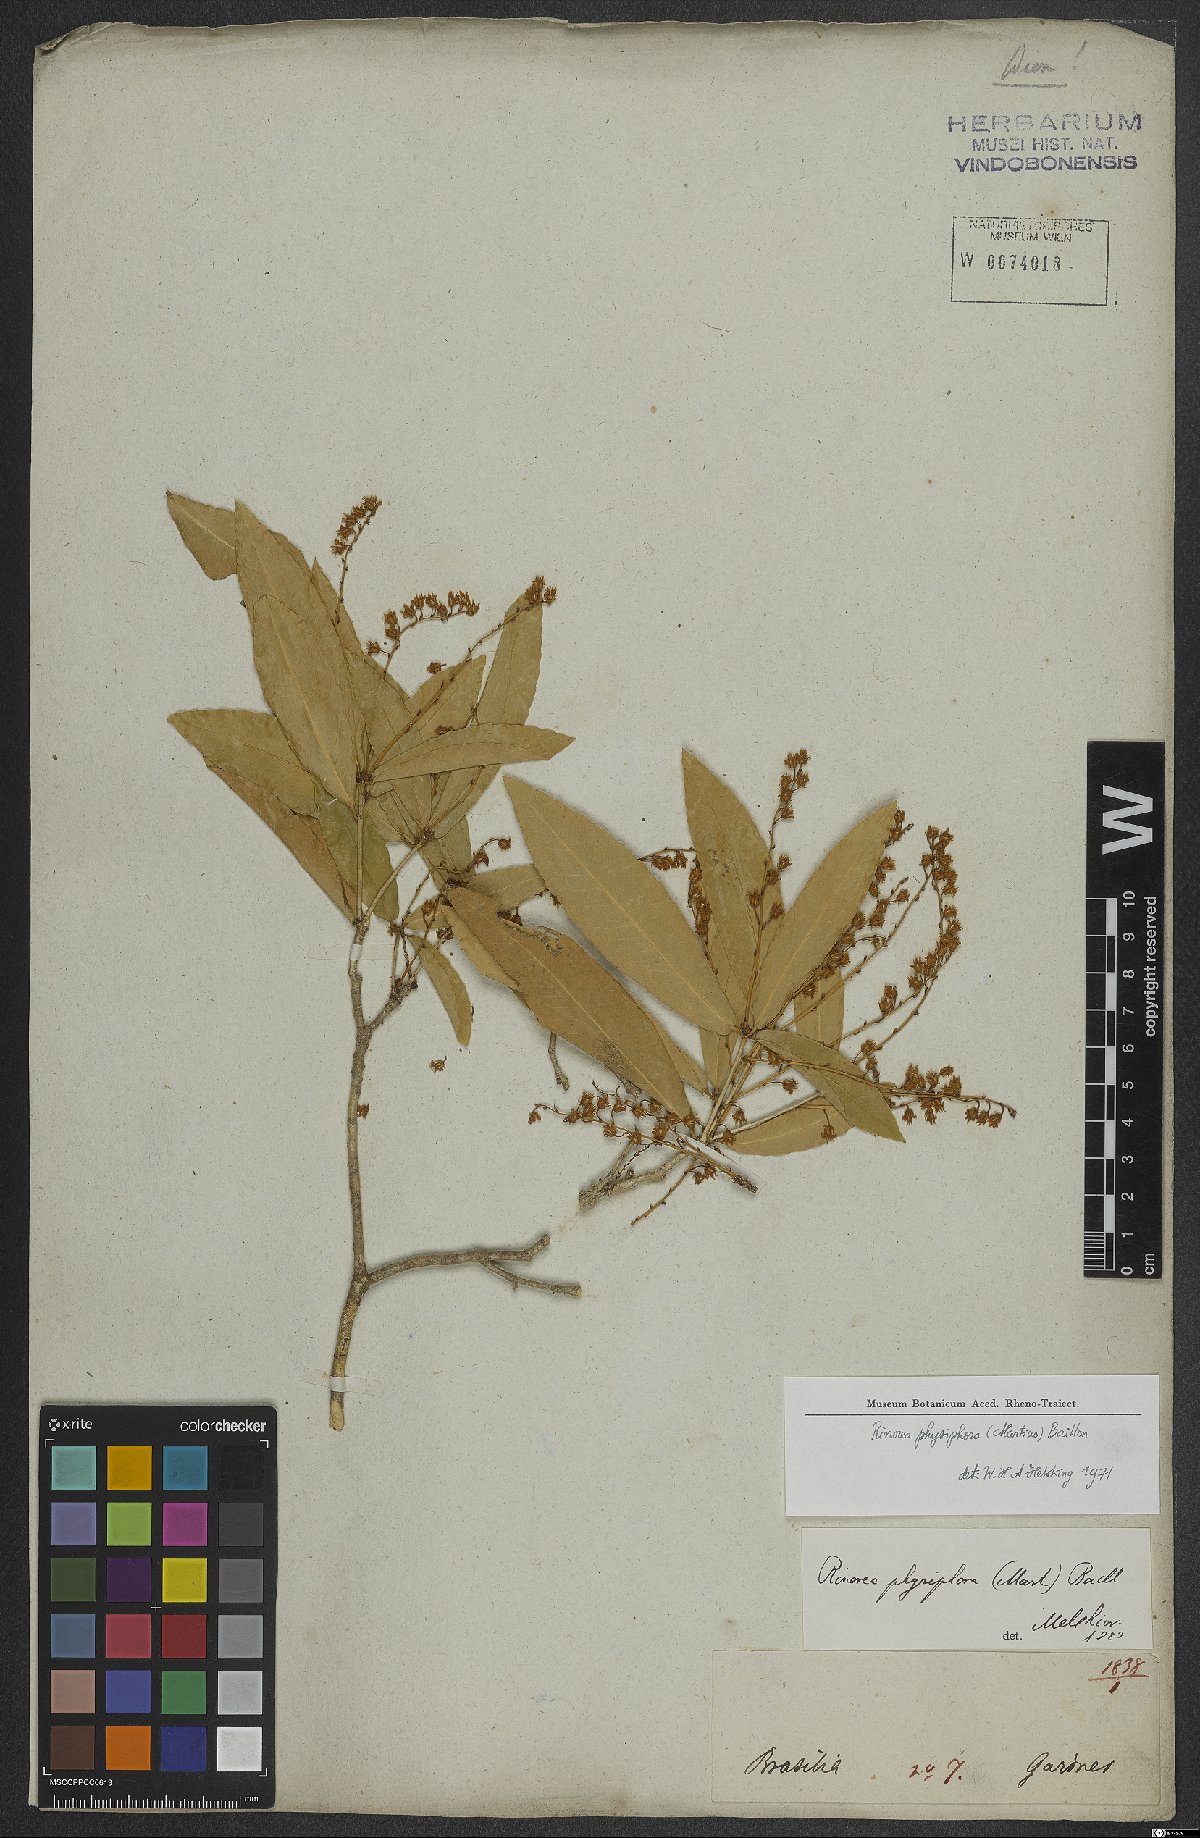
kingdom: Plantae
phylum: Tracheophyta
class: Magnoliopsida
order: Malpighiales
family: Violaceae
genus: Rinorea
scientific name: Rinorea laevigata
